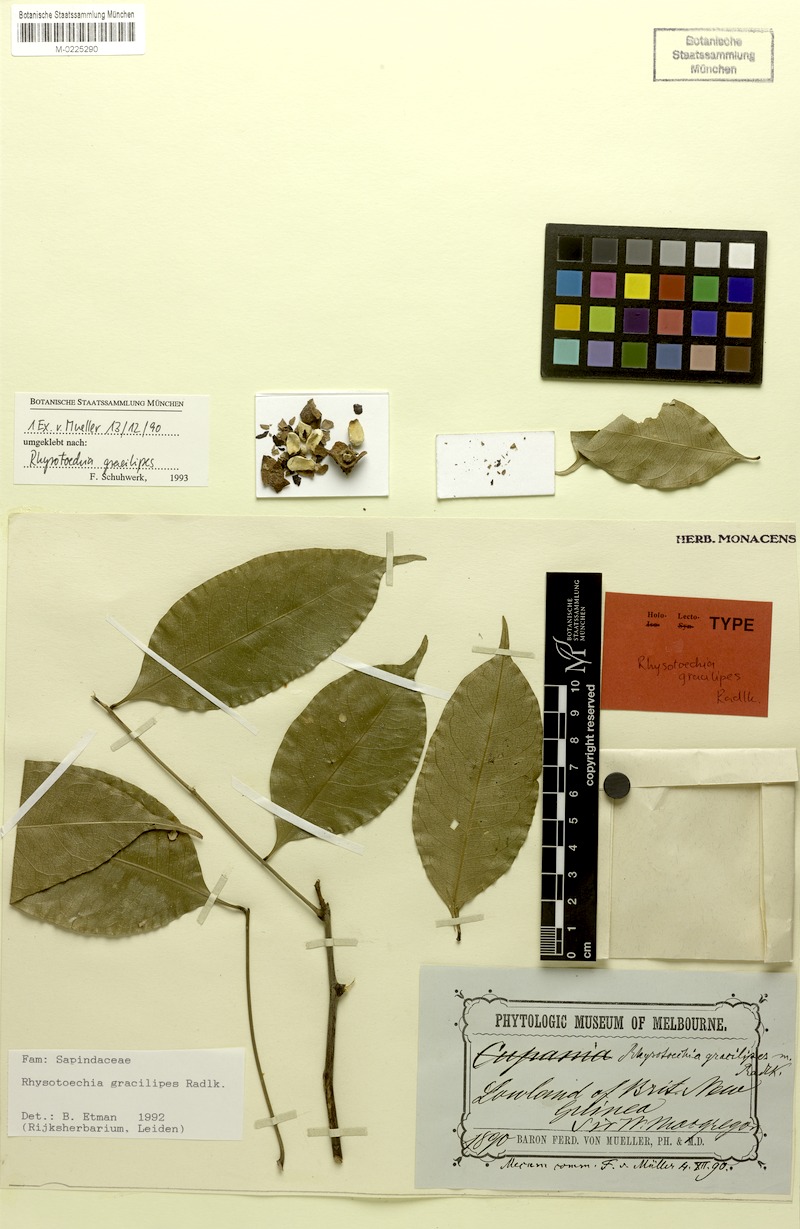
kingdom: Plantae
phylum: Tracheophyta
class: Magnoliopsida
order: Sapindales
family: Sapindaceae
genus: Rhysotoechia
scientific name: Rhysotoechia gracilipes
